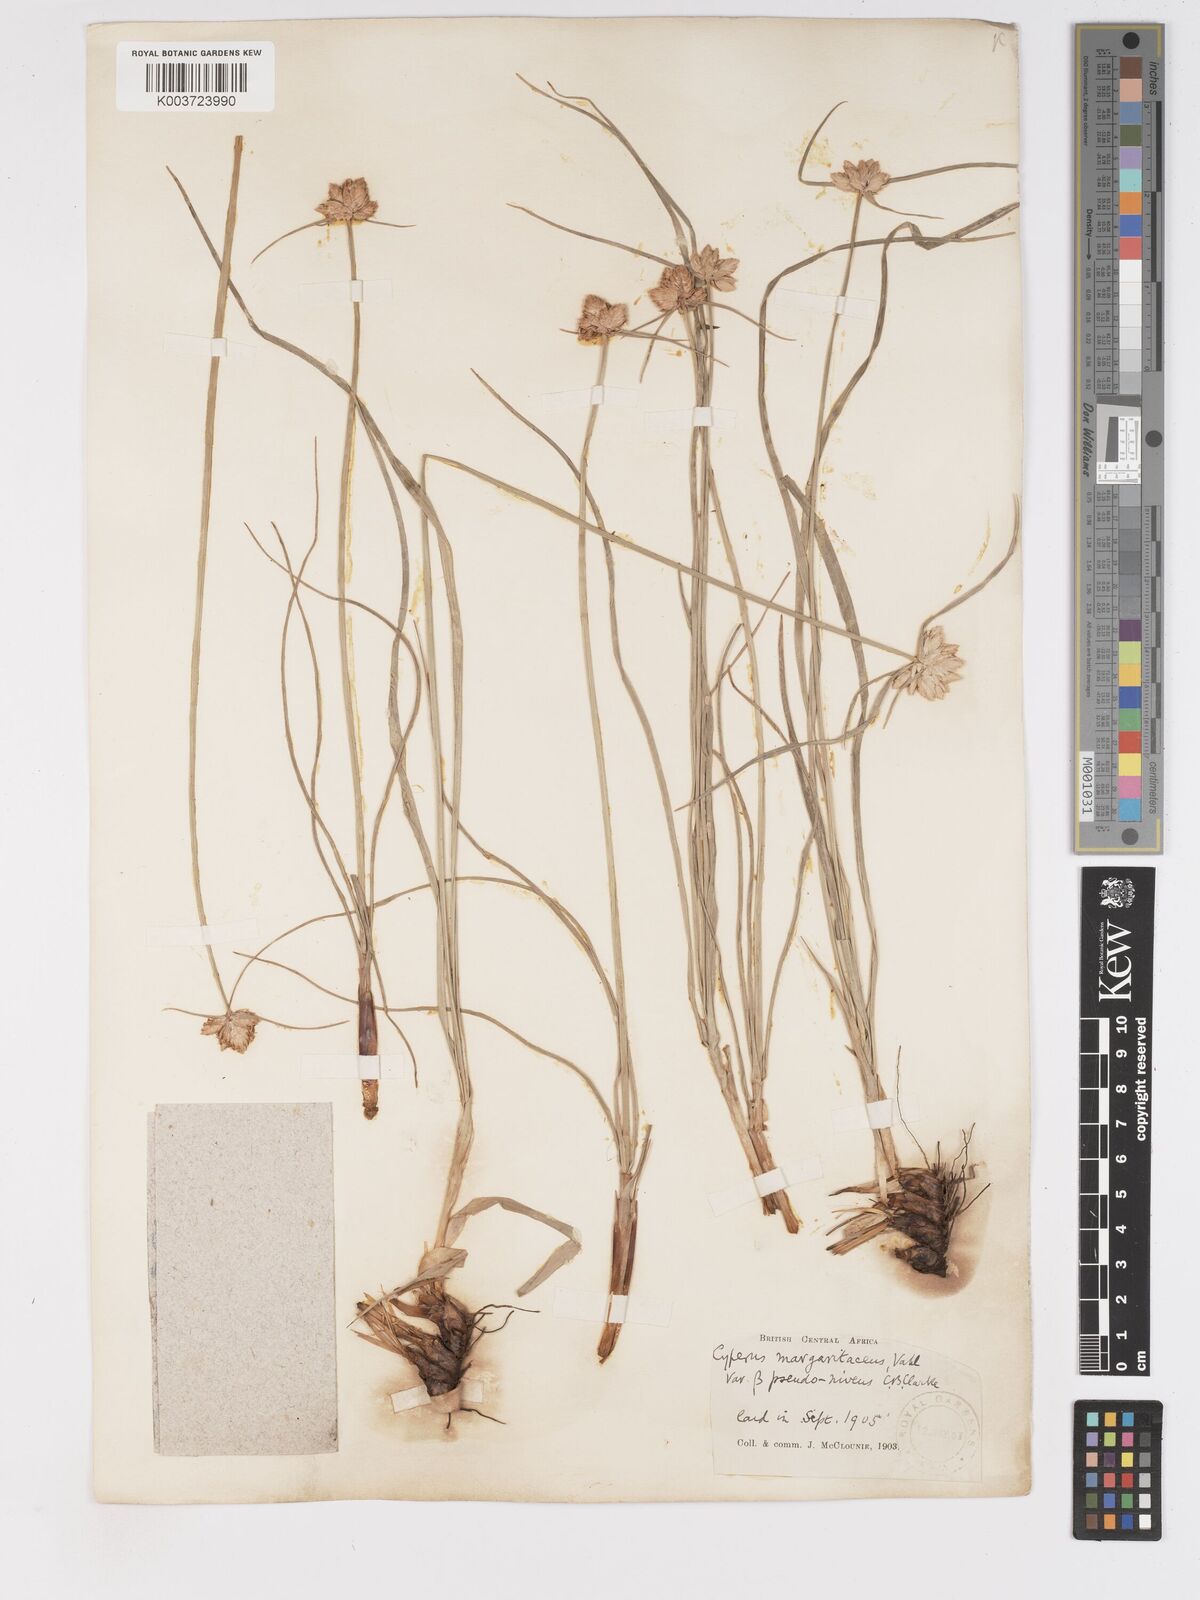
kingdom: Plantae
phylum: Tracheophyta
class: Liliopsida
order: Poales
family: Cyperaceae
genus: Cyperus
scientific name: Cyperus niveus
